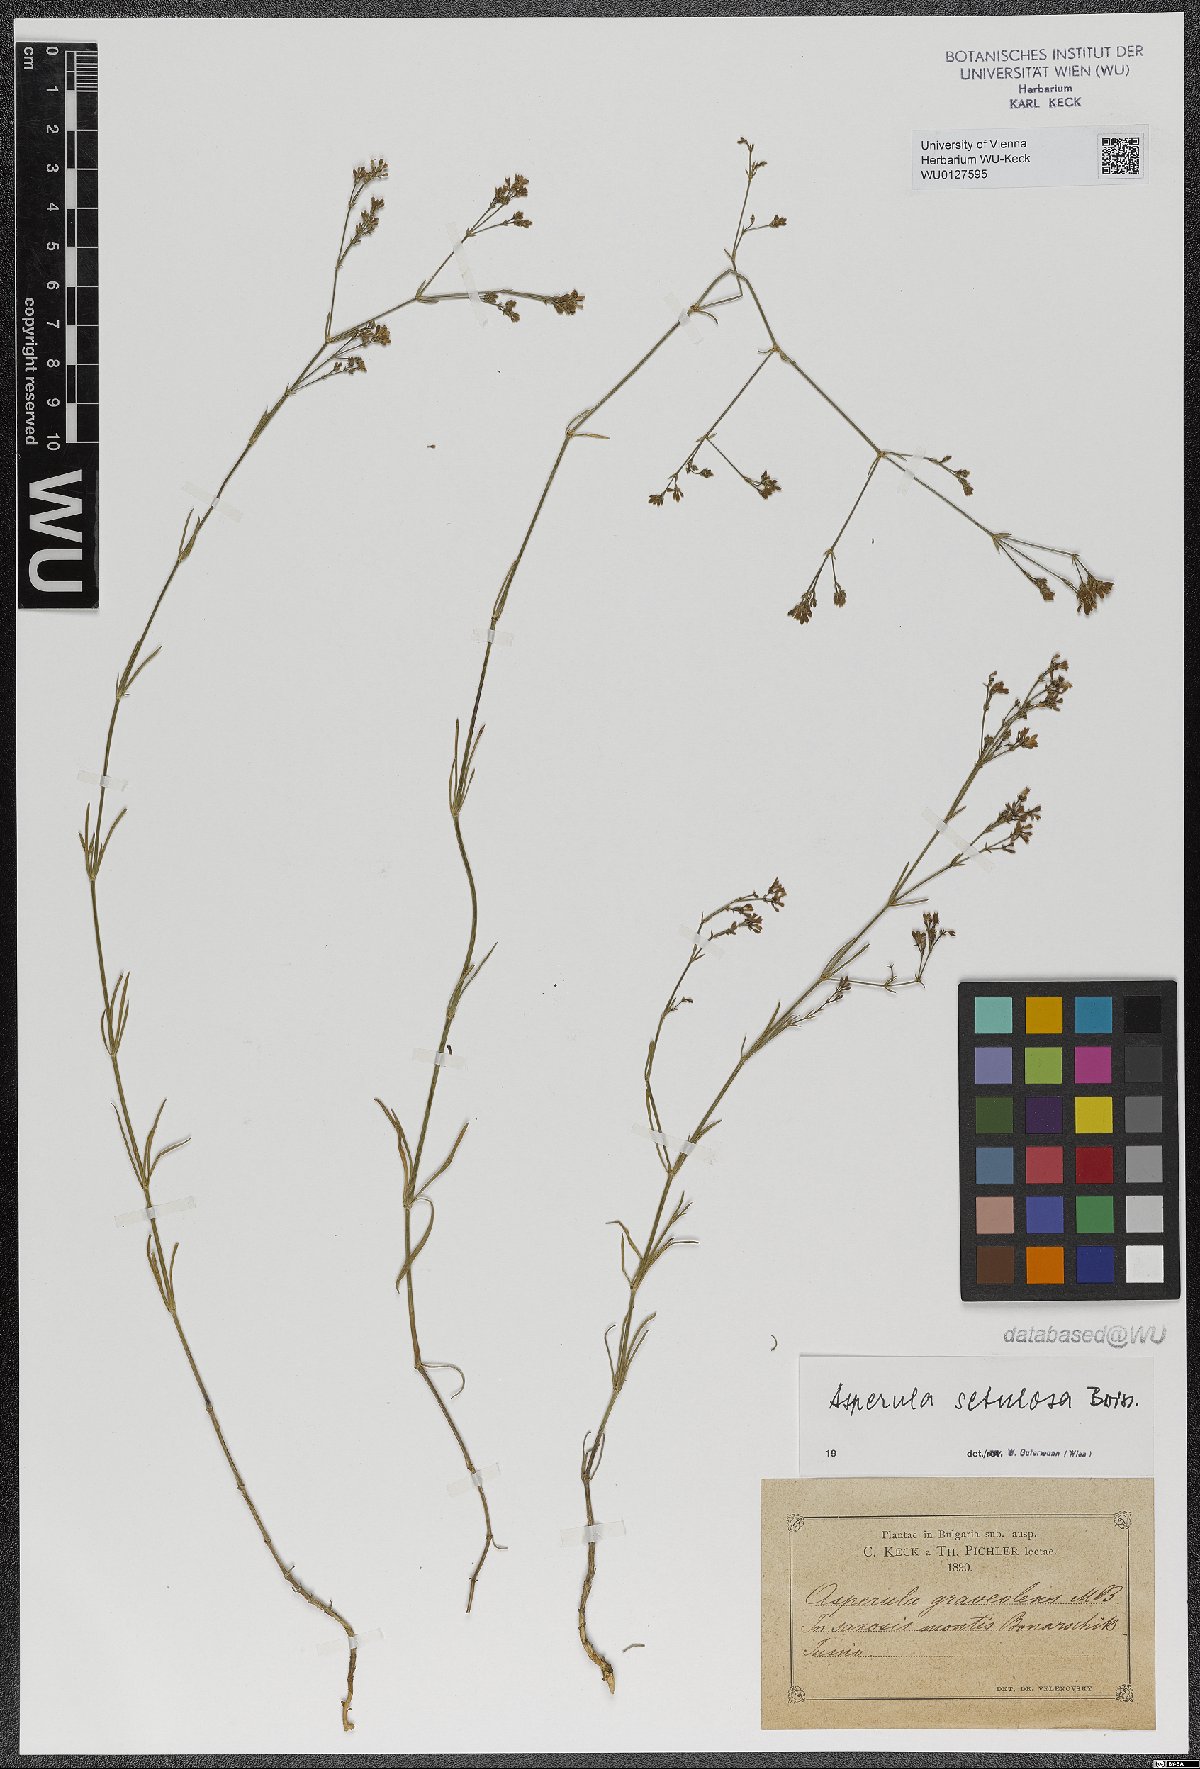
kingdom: Plantae
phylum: Tracheophyta
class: Magnoliopsida
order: Gentianales
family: Rubiaceae
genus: Cynanchica
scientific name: Cynanchica setulosa
